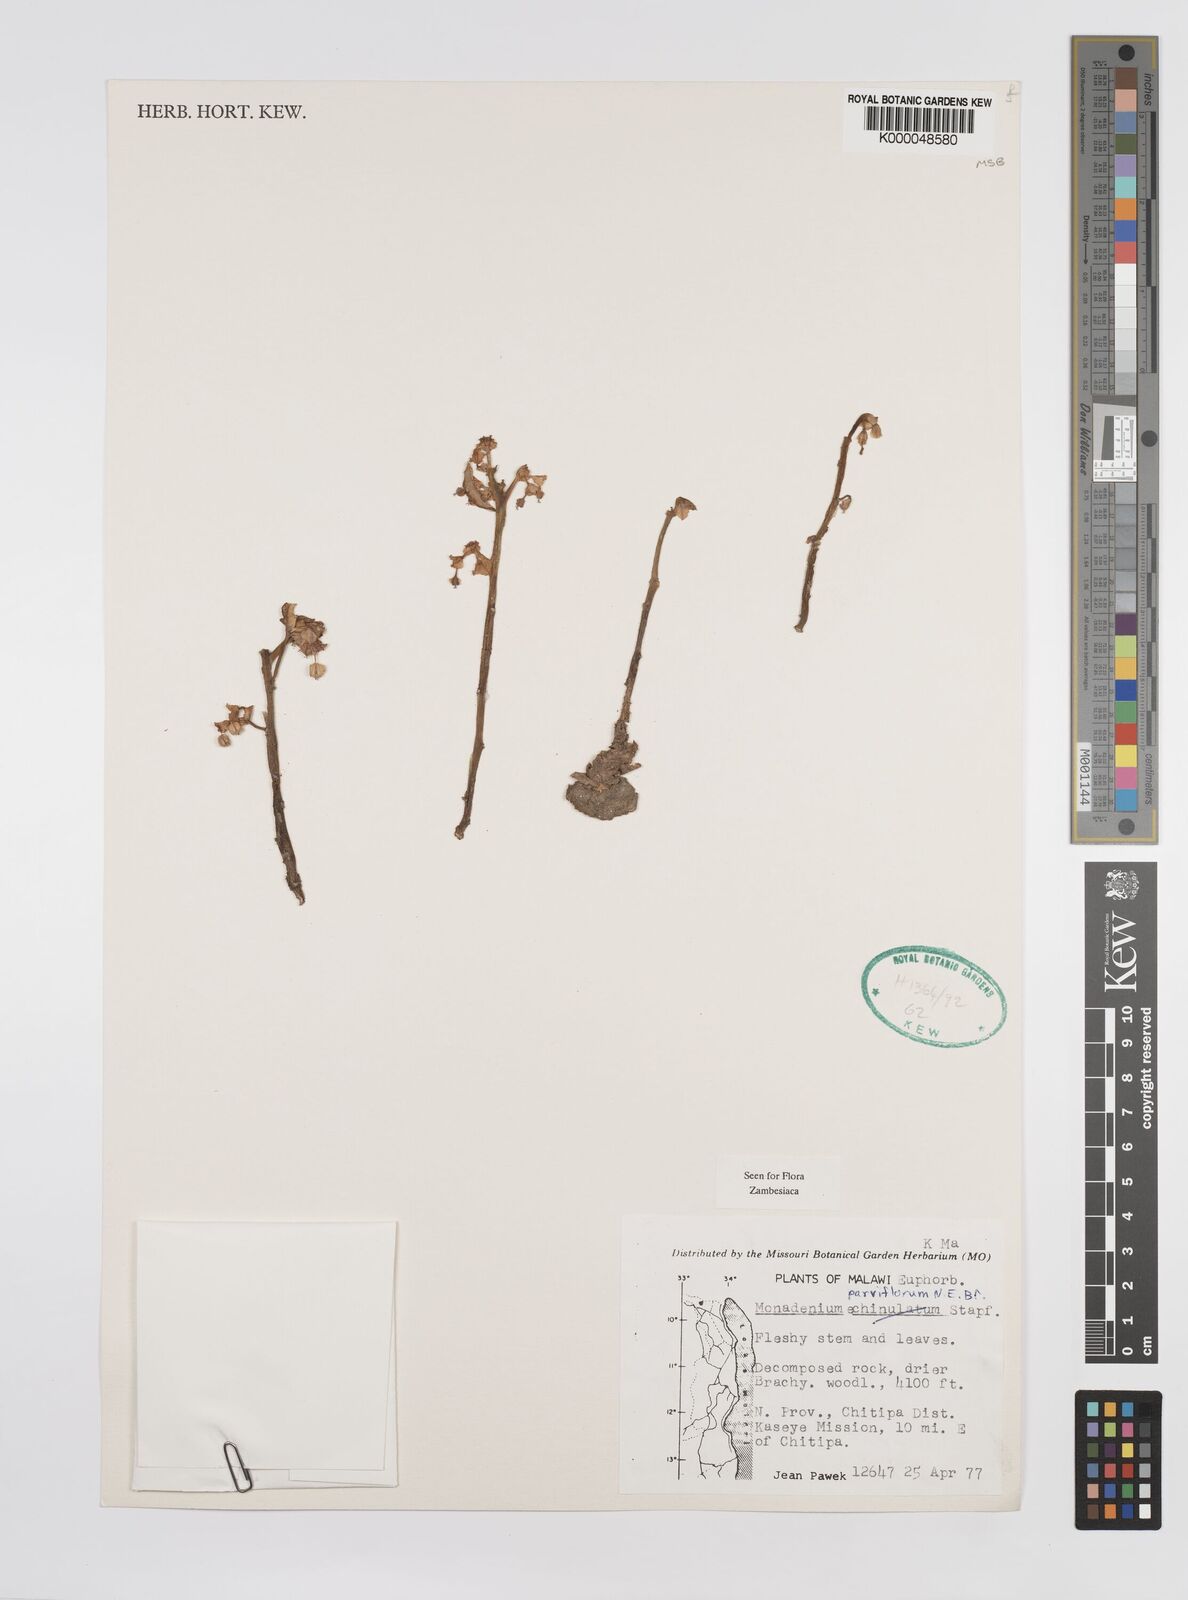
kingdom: Plantae
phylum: Tracheophyta
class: Magnoliopsida
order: Malpighiales
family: Euphorbiaceae
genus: Euphorbia
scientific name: Euphorbia neoparviflora
